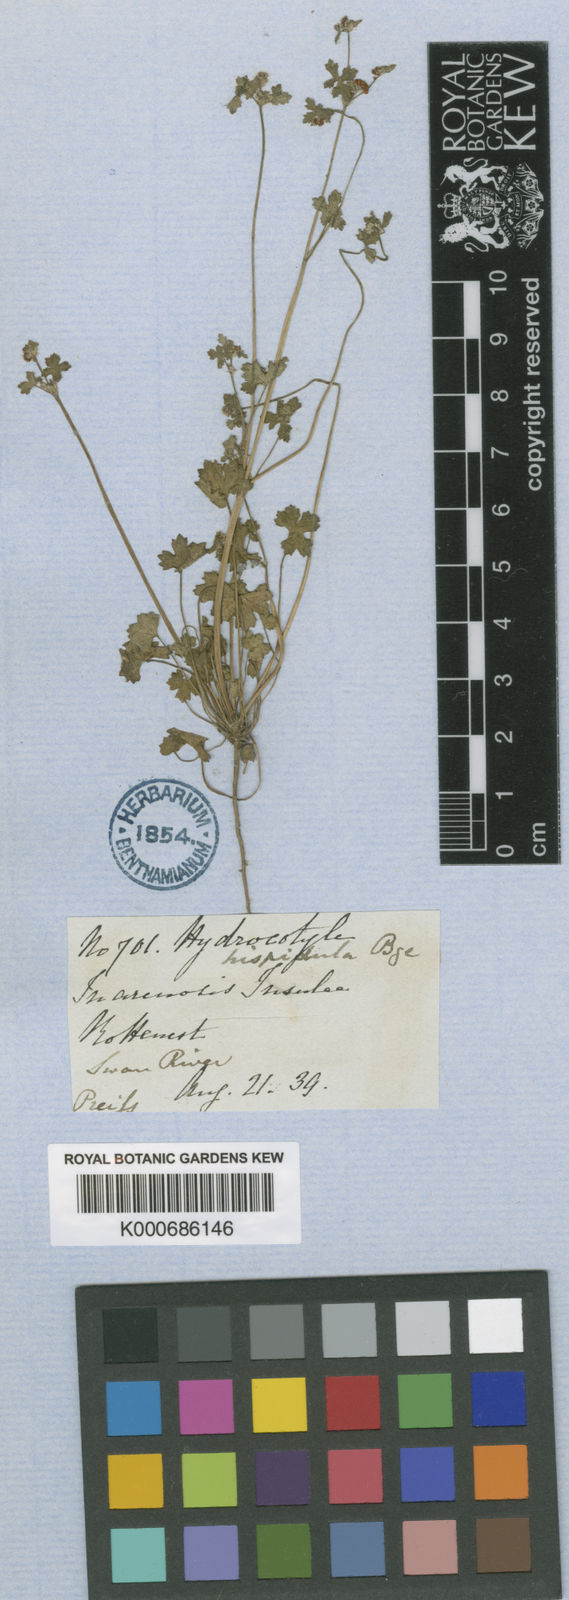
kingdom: Plantae
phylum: Tracheophyta
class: Magnoliopsida
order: Apiales
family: Araliaceae
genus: Hydrocotyle
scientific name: Hydrocotyle hispidula
